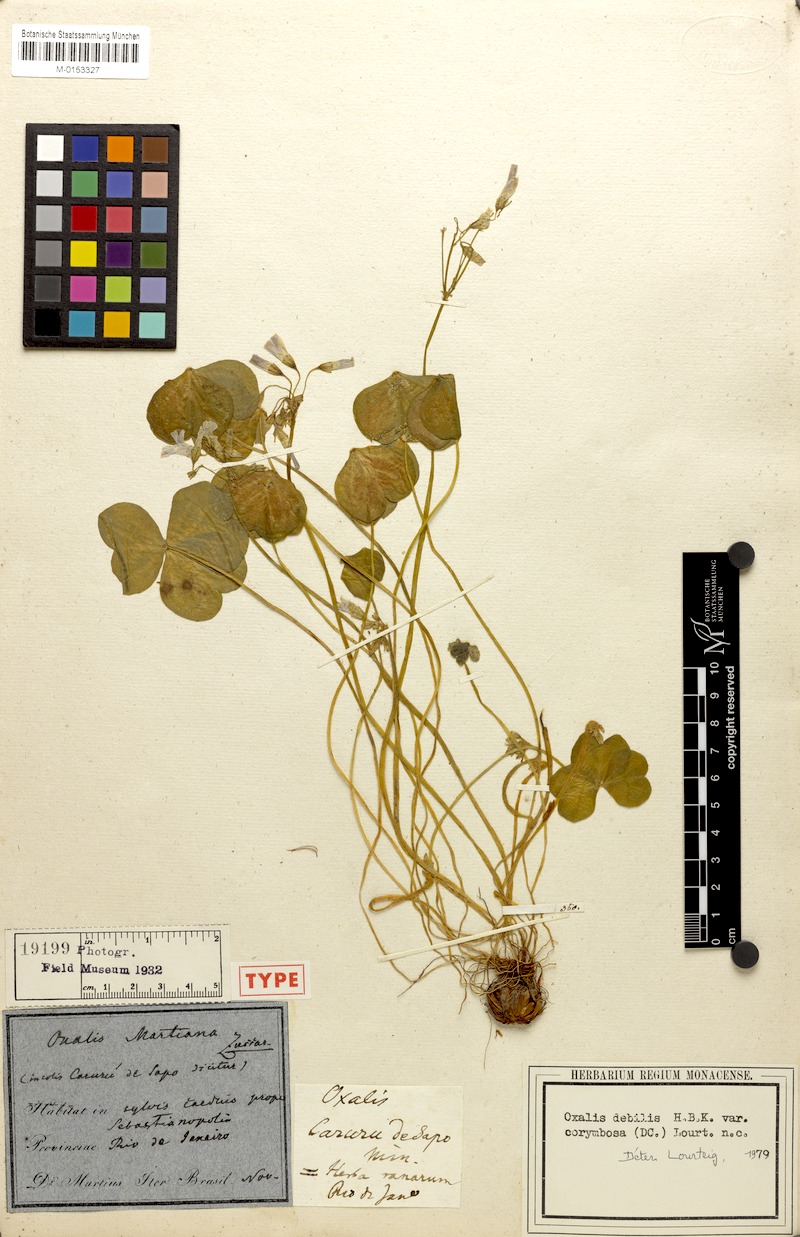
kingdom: Plantae
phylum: Tracheophyta
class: Magnoliopsida
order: Oxalidales
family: Oxalidaceae
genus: Oxalis
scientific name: Oxalis debilis
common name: Large-flowered pink-sorrel
